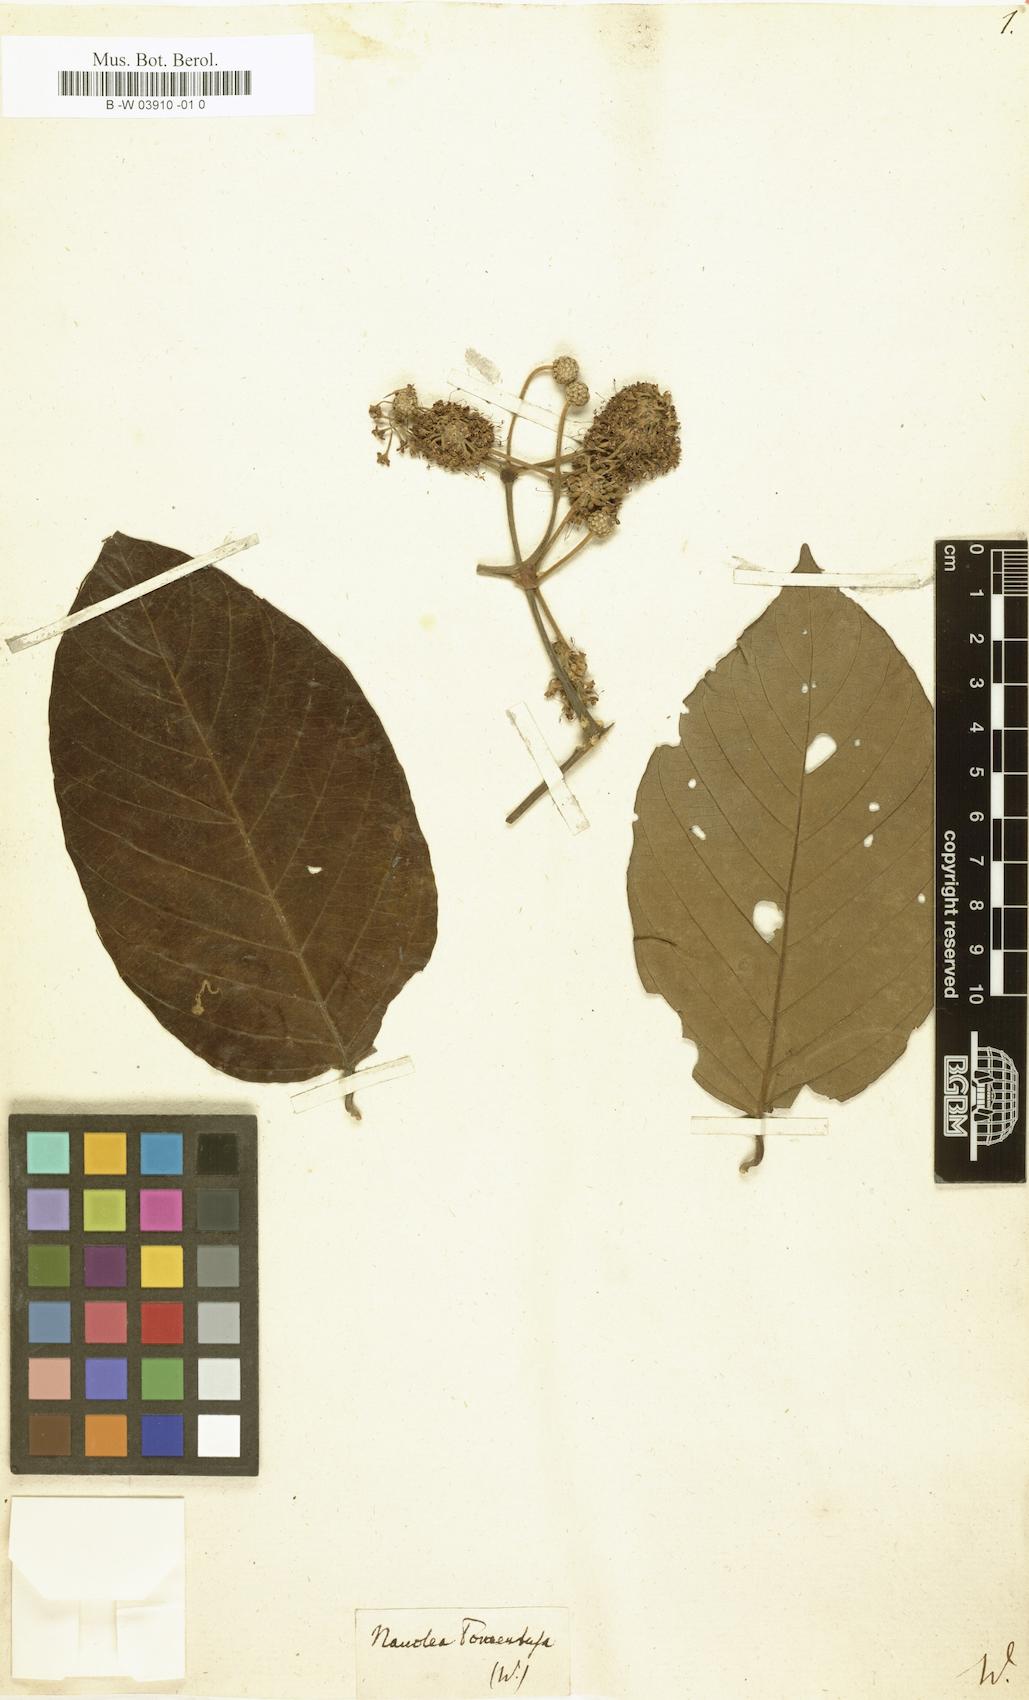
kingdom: Plantae
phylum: Tracheophyta
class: Magnoliopsida
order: Gentianales
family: Rubiaceae
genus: Uncaria
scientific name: Uncaria tomentosa
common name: Cat's-claw
